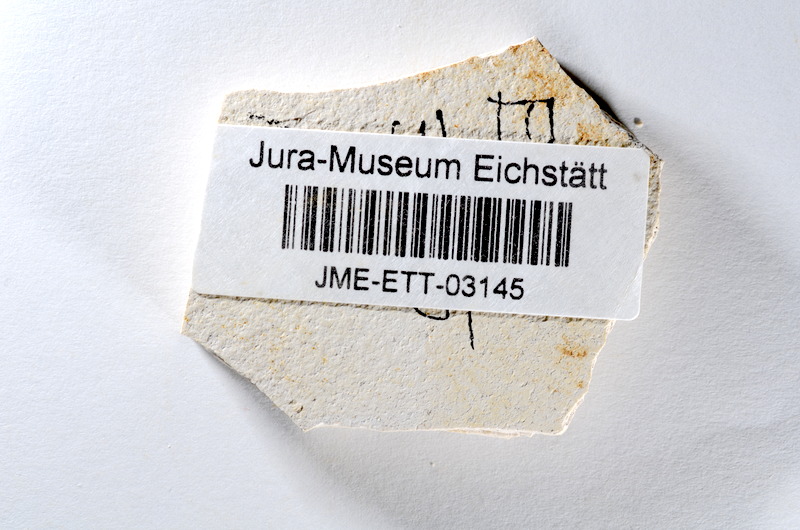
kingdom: Animalia
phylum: Chordata
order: Salmoniformes
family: Orthogonikleithridae
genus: Orthogonikleithrus
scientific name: Orthogonikleithrus hoelli
